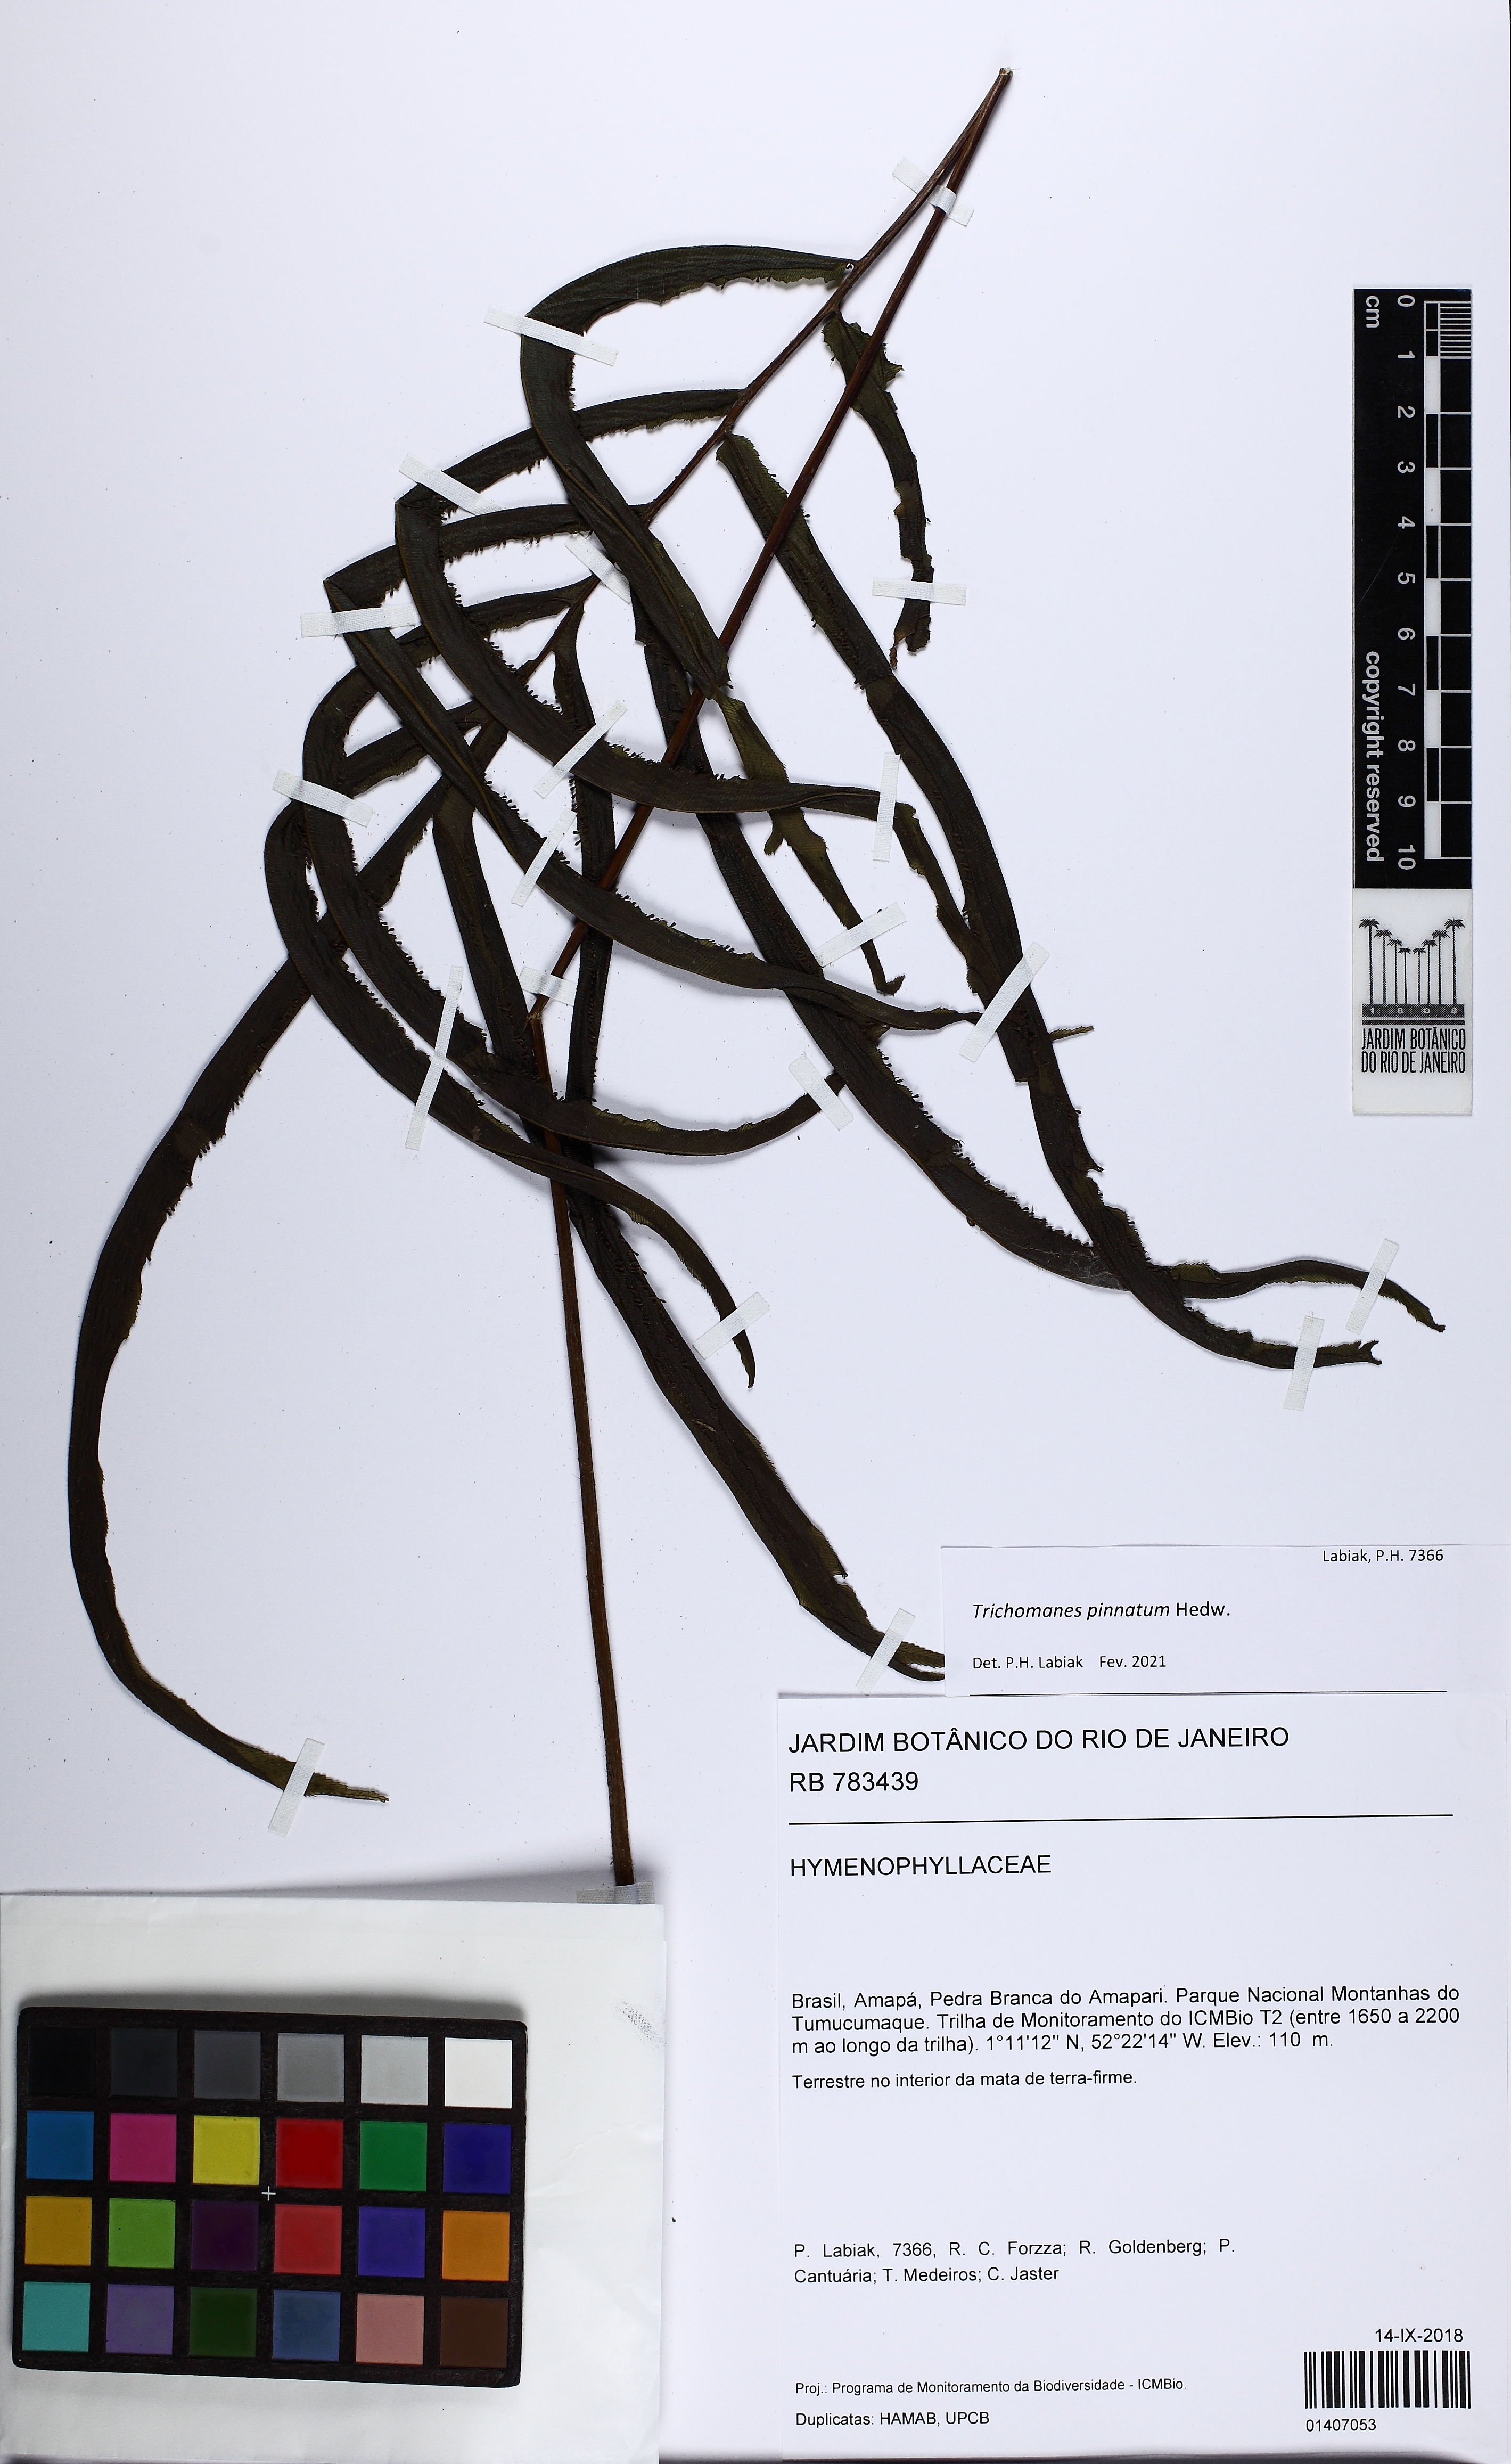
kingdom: Plantae
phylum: Tracheophyta
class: Polypodiopsida
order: Hymenophyllales
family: Hymenophyllaceae
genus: Trichomanes
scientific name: Trichomanes pinnatum
